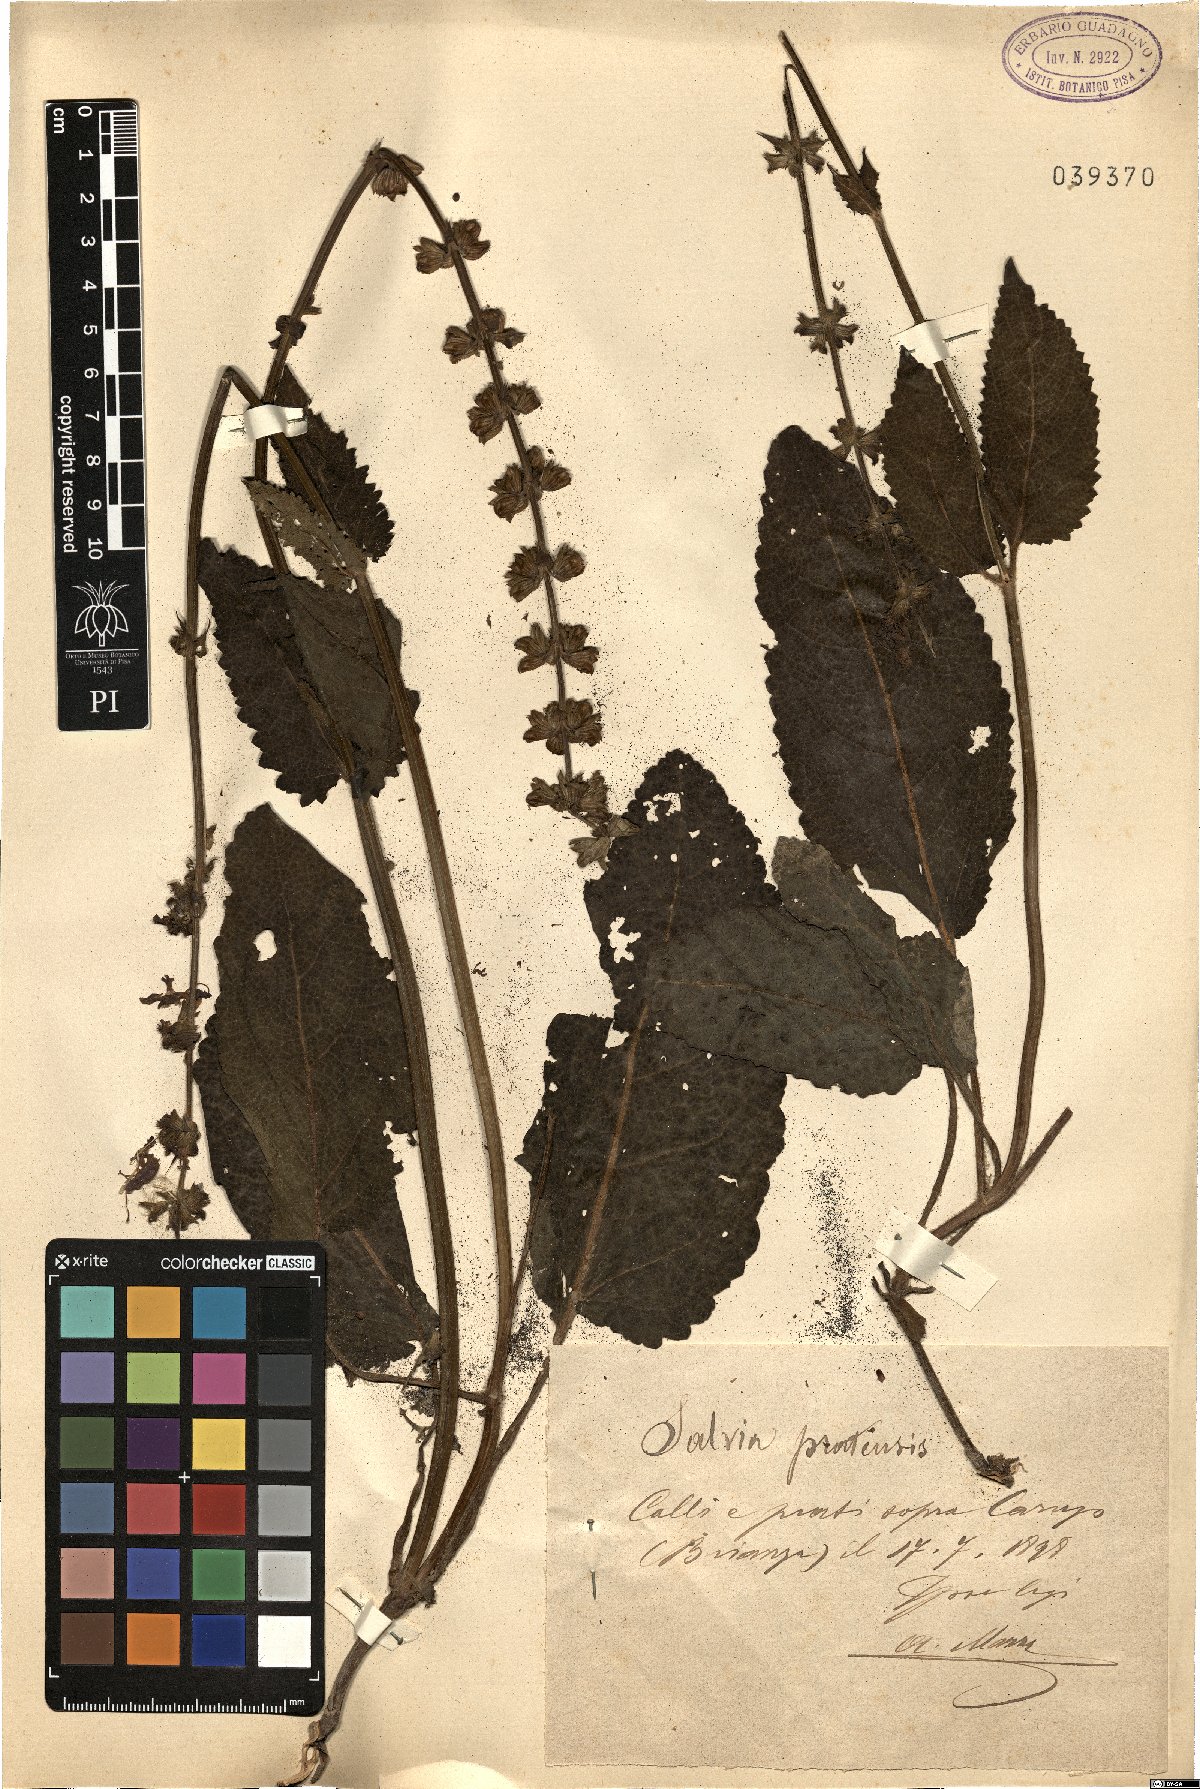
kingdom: Plantae
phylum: Tracheophyta
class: Magnoliopsida
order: Lamiales
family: Lamiaceae
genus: Salvia
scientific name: Salvia pratensis
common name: Meadow sage
